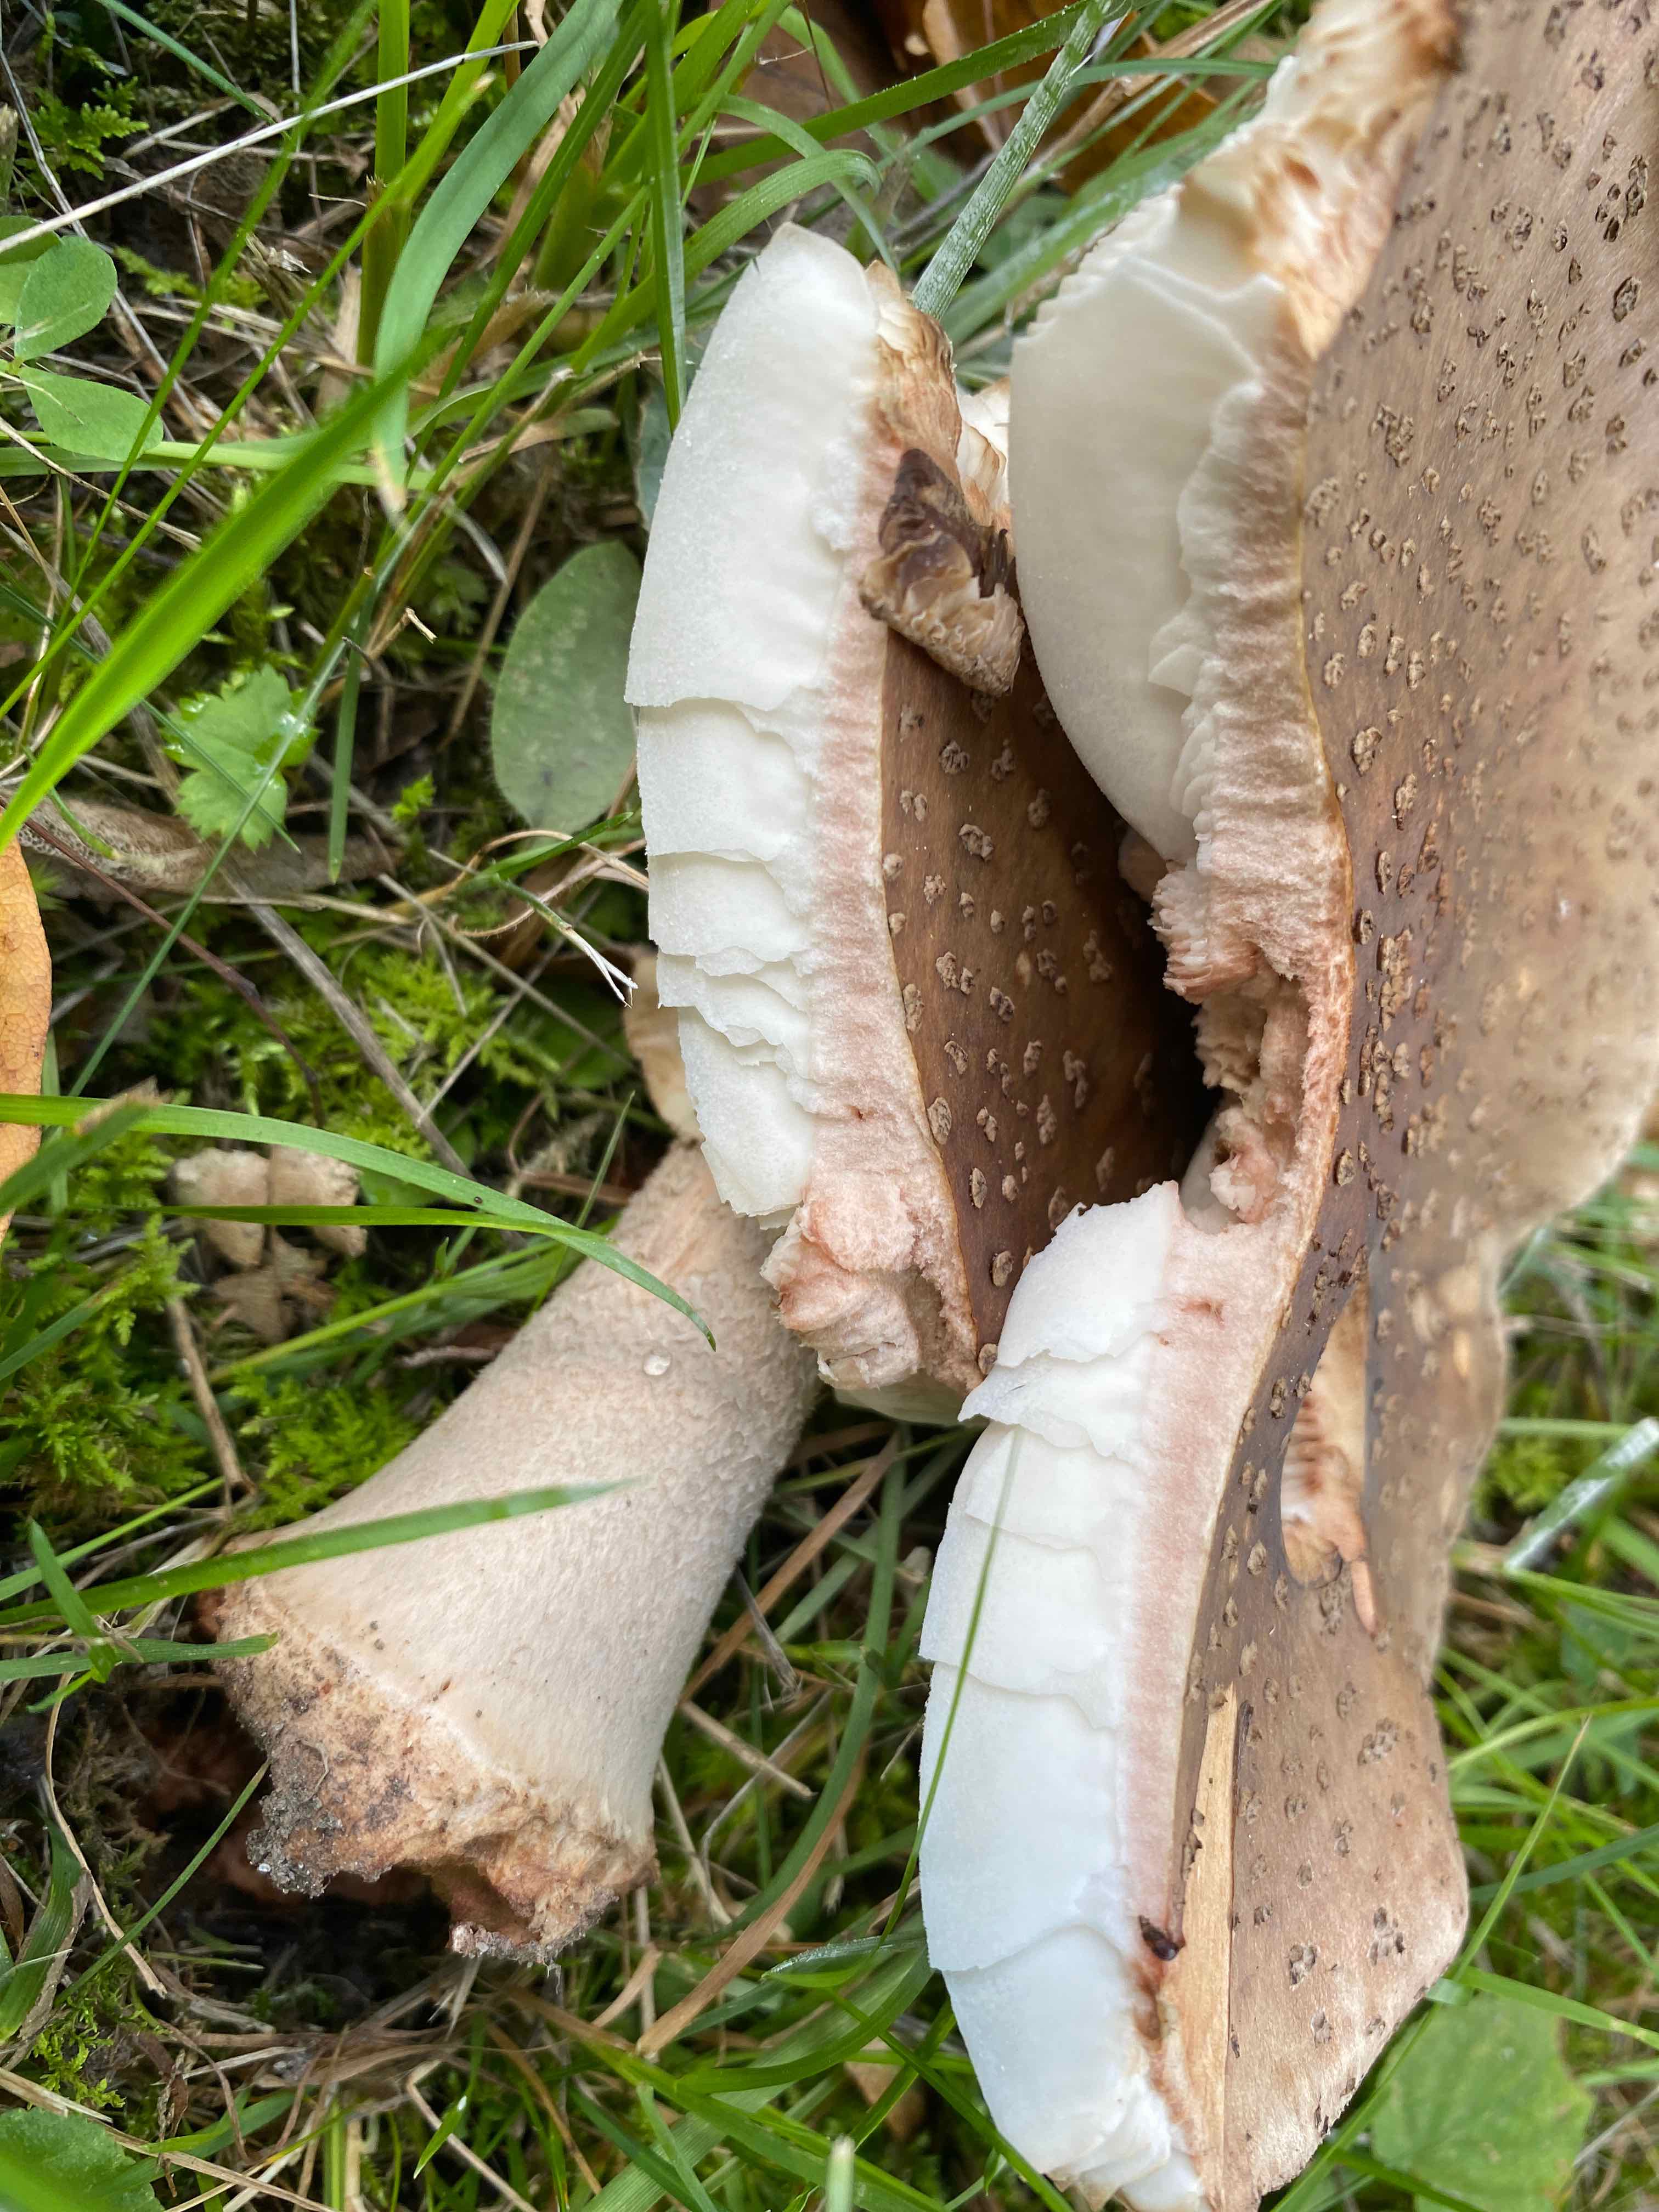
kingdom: Fungi
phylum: Basidiomycota
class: Agaricomycetes
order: Agaricales
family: Amanitaceae
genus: Amanita
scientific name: Amanita rubescens
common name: rødmende fluesvamp
